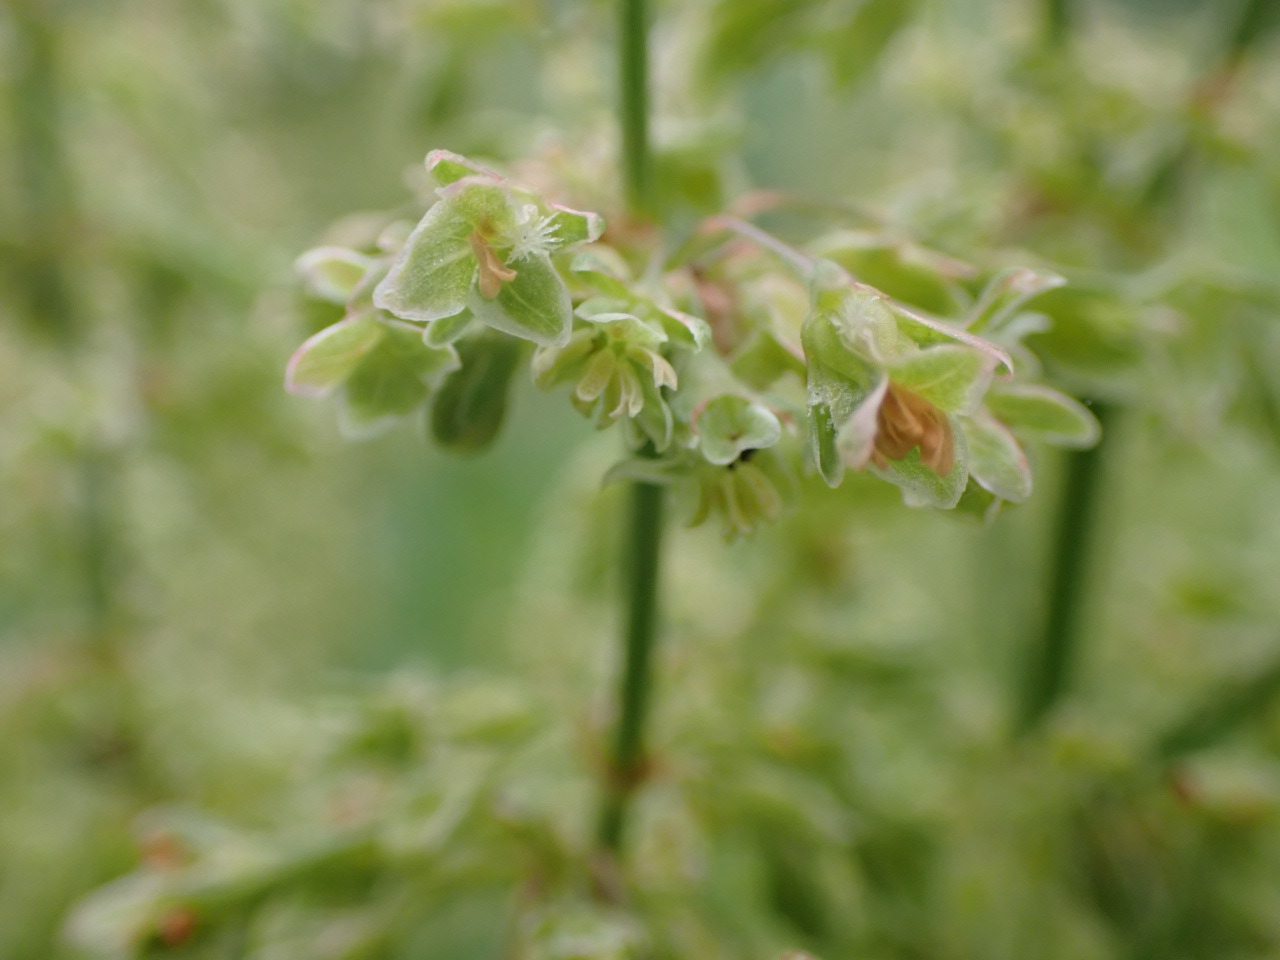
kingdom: Plantae
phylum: Tracheophyta
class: Magnoliopsida
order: Caryophyllales
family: Polygonaceae
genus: Rumex
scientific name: Rumex hydrolapathum
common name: Vand-skræppe
